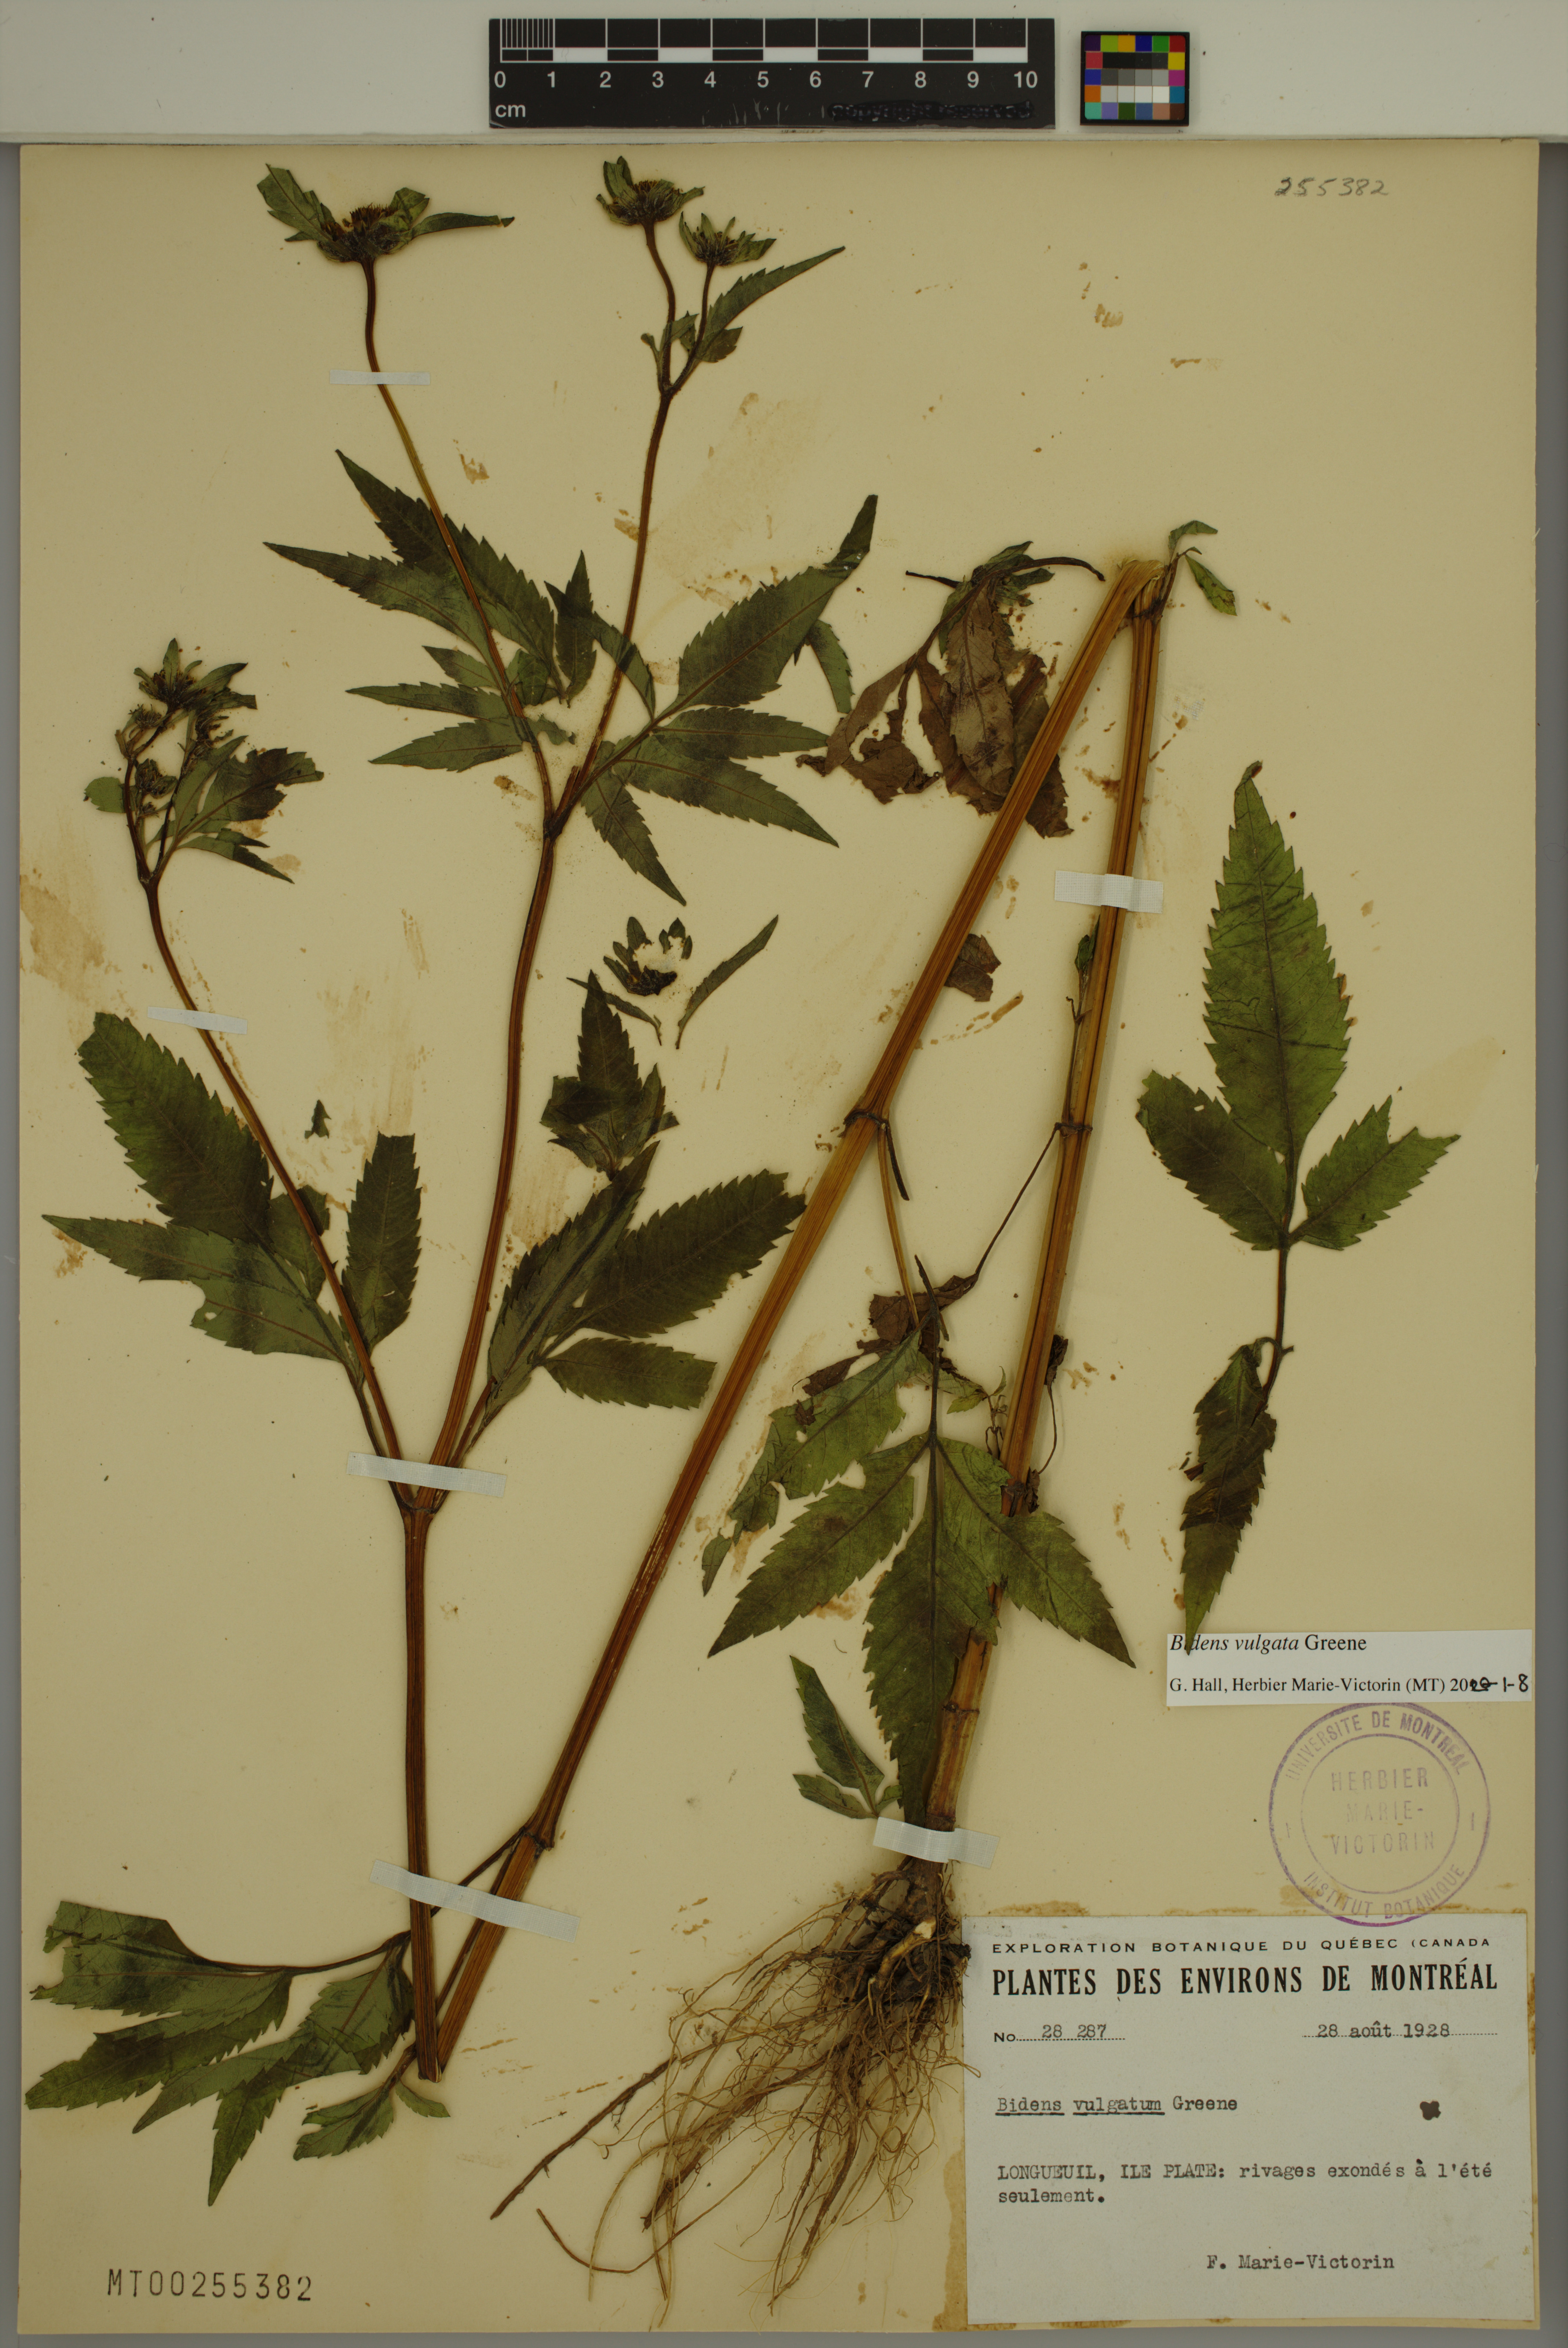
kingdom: Plantae
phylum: Tracheophyta
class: Magnoliopsida
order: Asterales
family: Asteraceae
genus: Bidens
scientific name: Bidens vulgata
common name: Tall beggarticks
